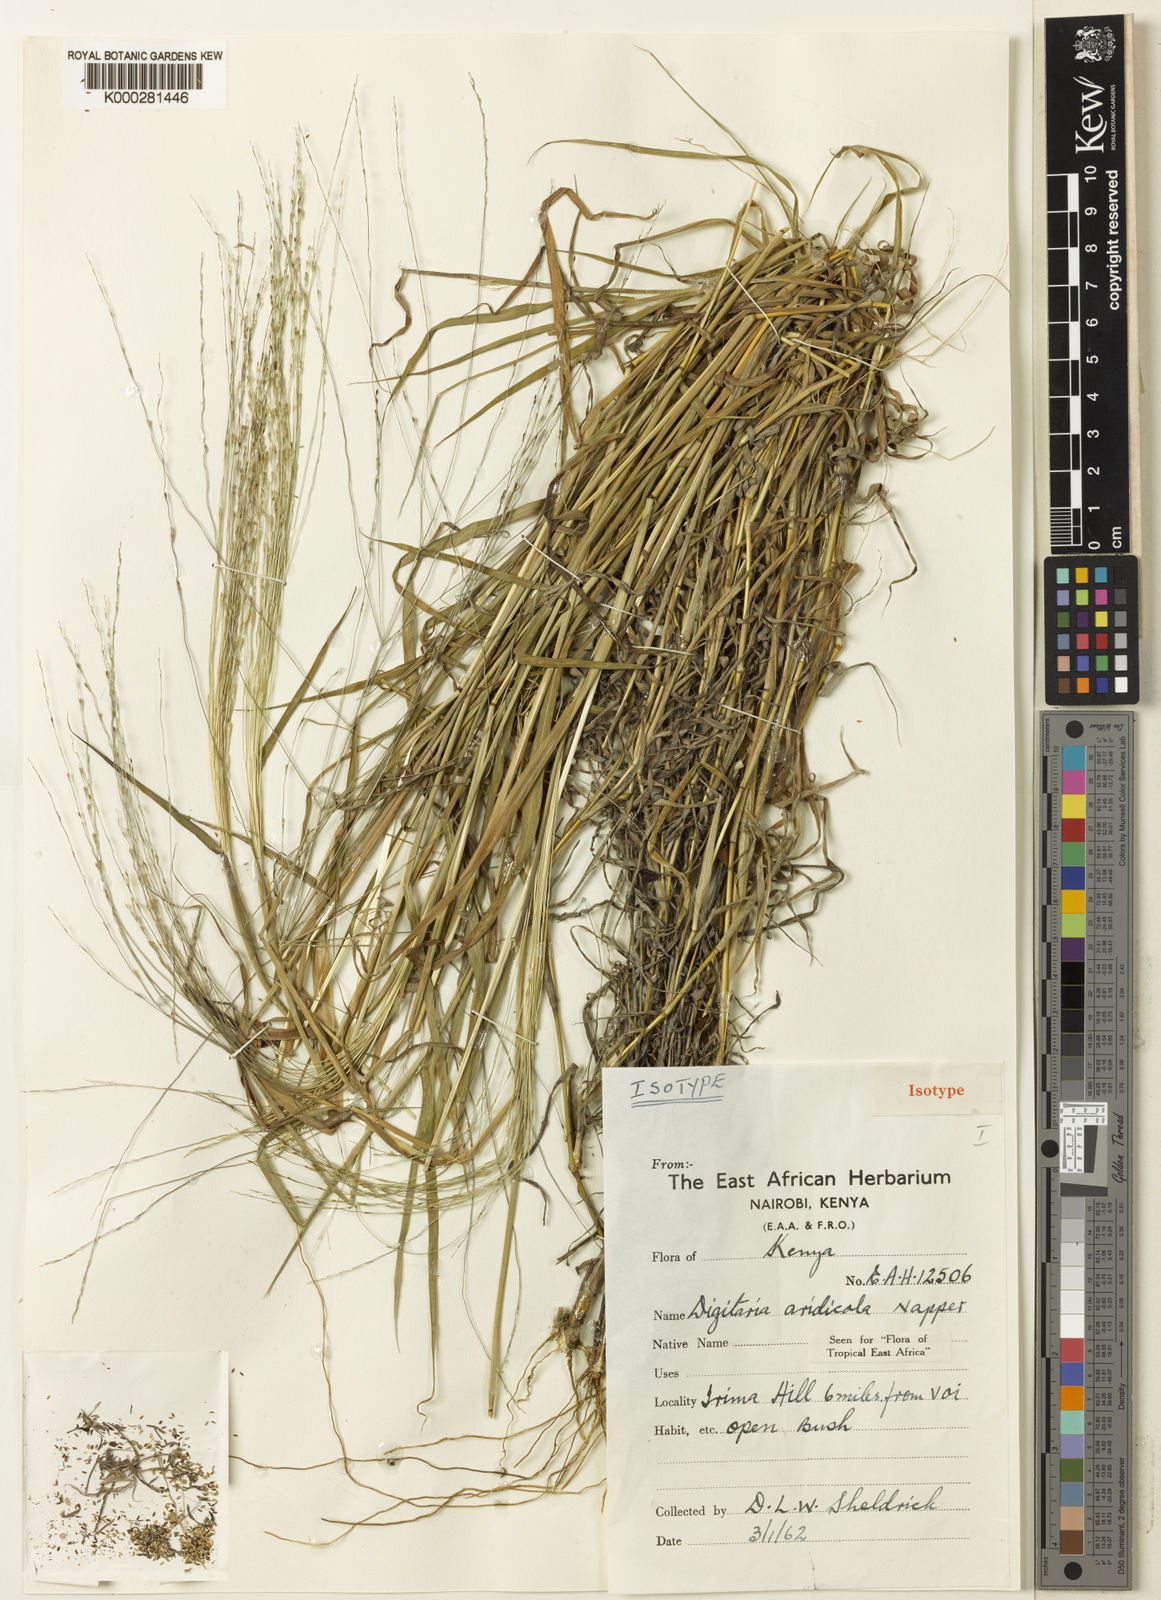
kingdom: Plantae
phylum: Tracheophyta
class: Liliopsida
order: Poales
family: Poaceae
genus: Digitaria
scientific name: Digitaria aridicola
